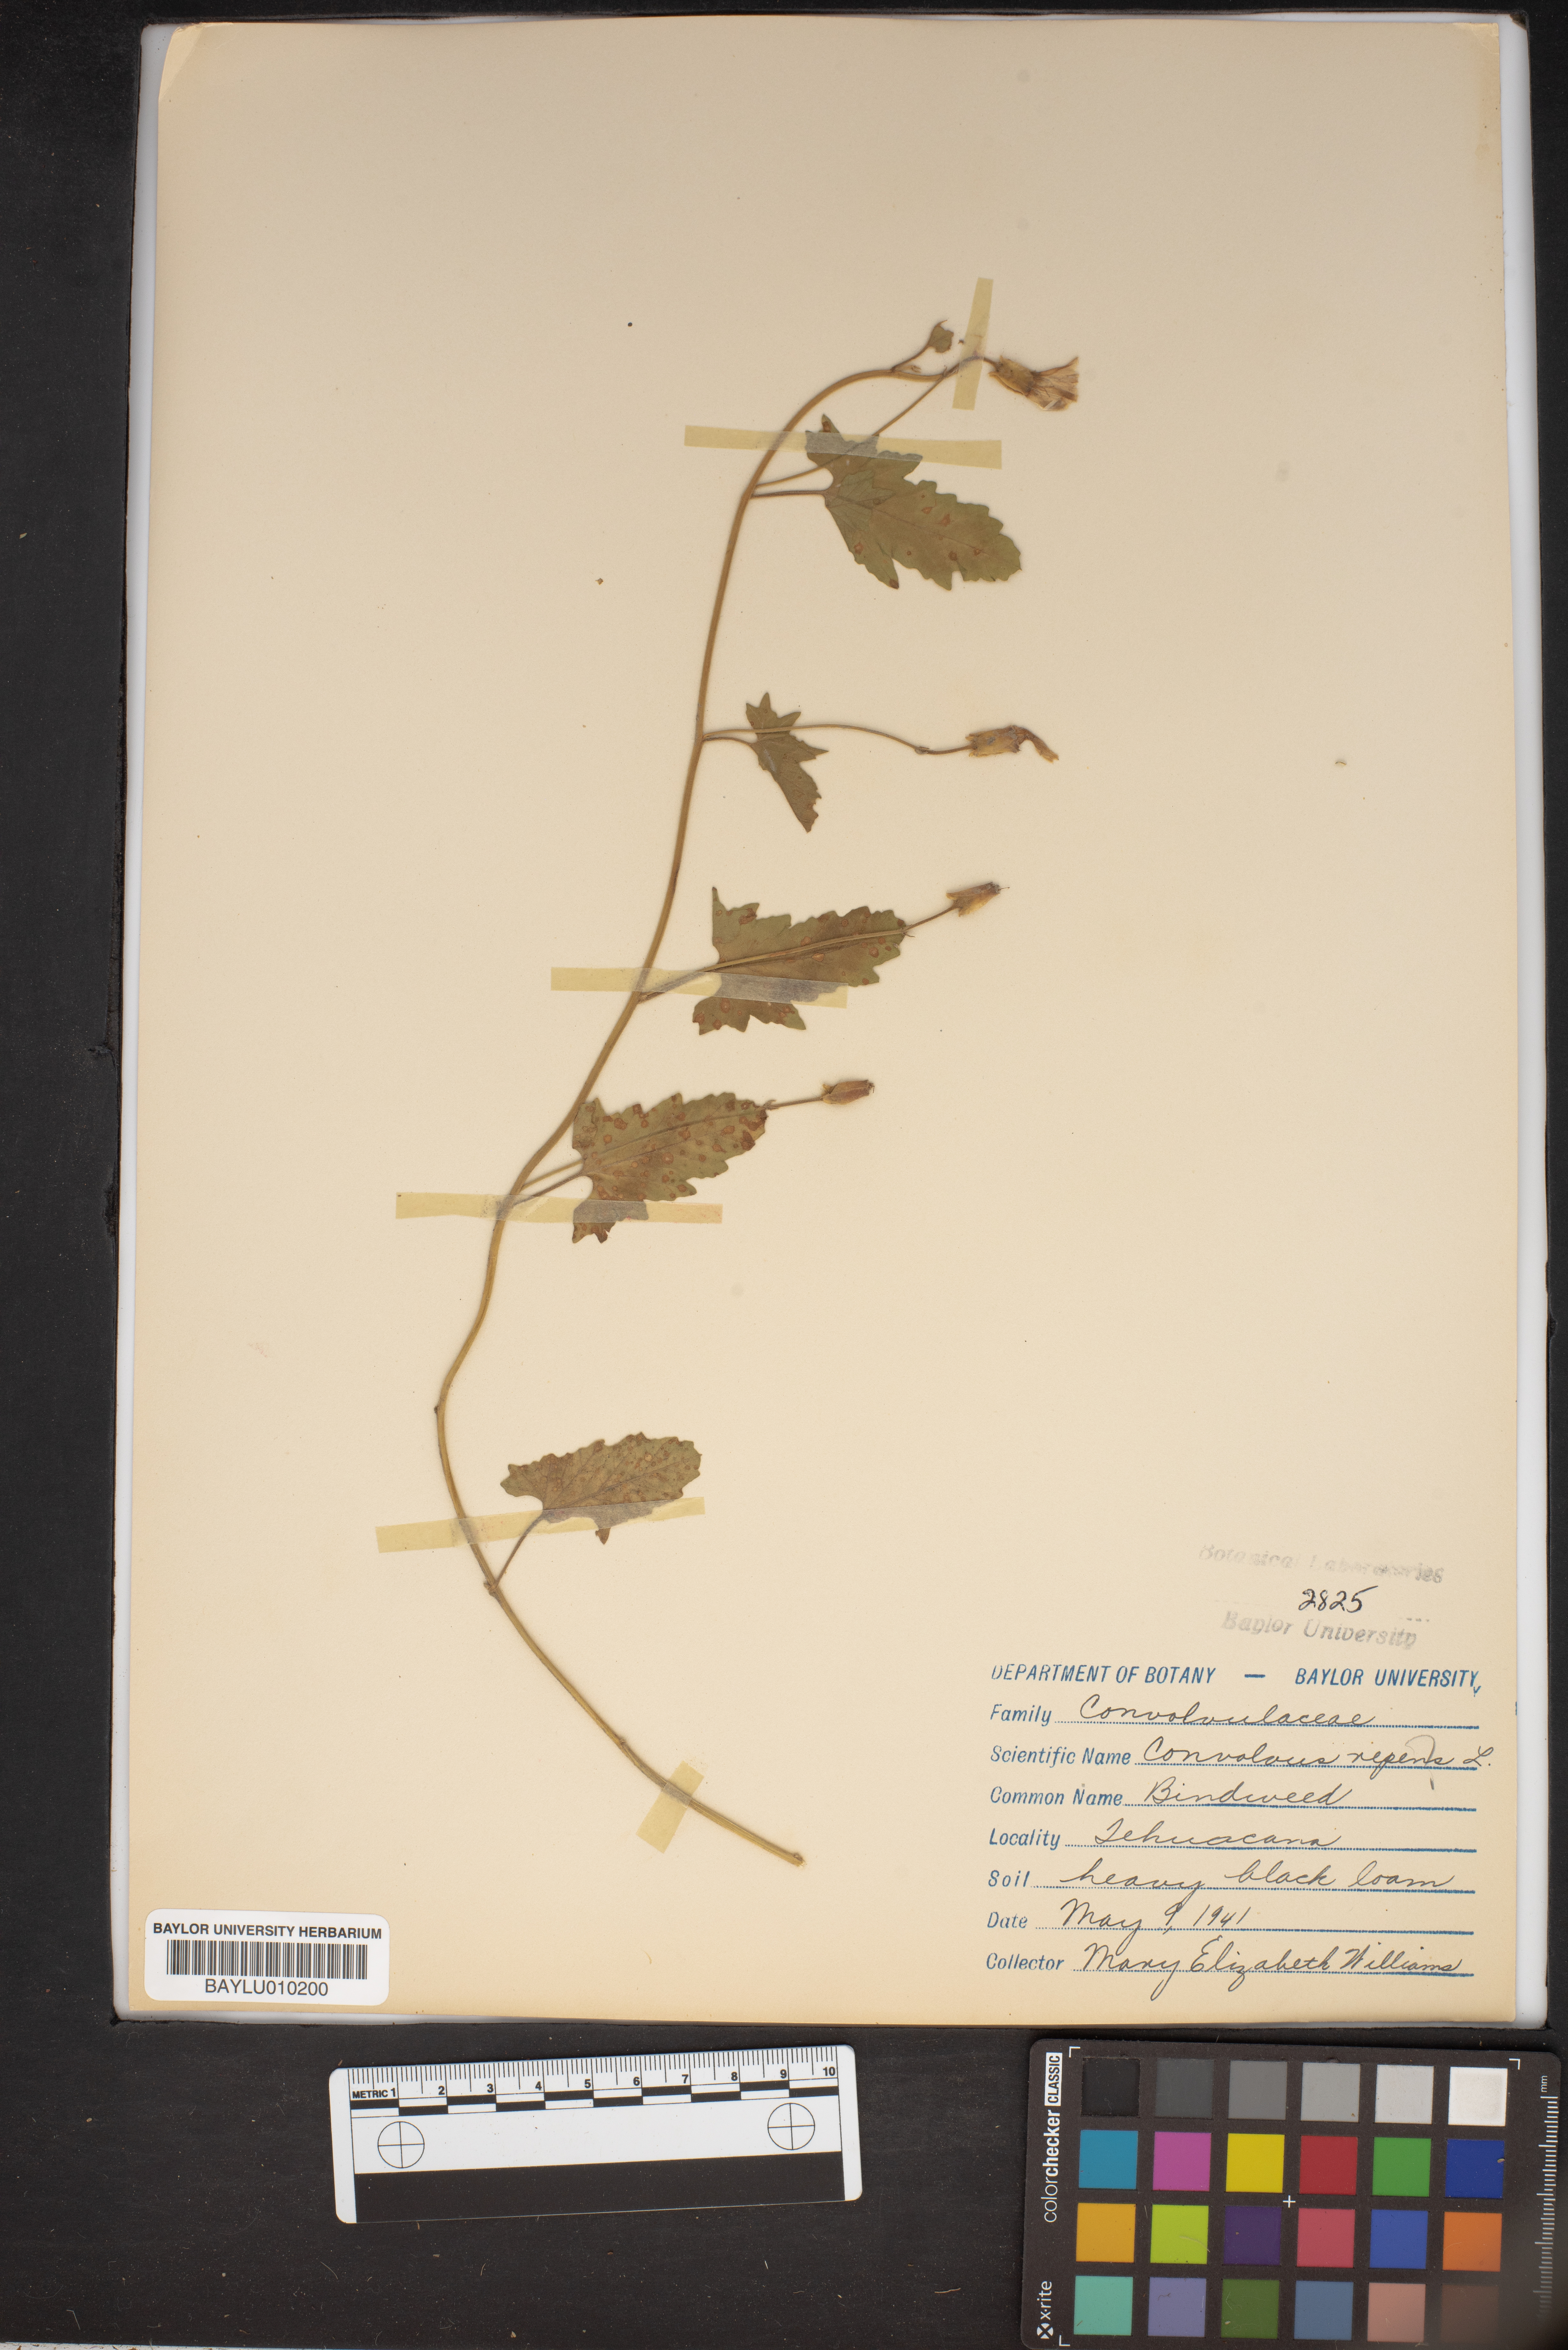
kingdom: Plantae
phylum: Tracheophyta
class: Magnoliopsida
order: Solanales
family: Convolvulaceae
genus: Calystegia
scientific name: Calystegia sepium
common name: Hedge bindweed
